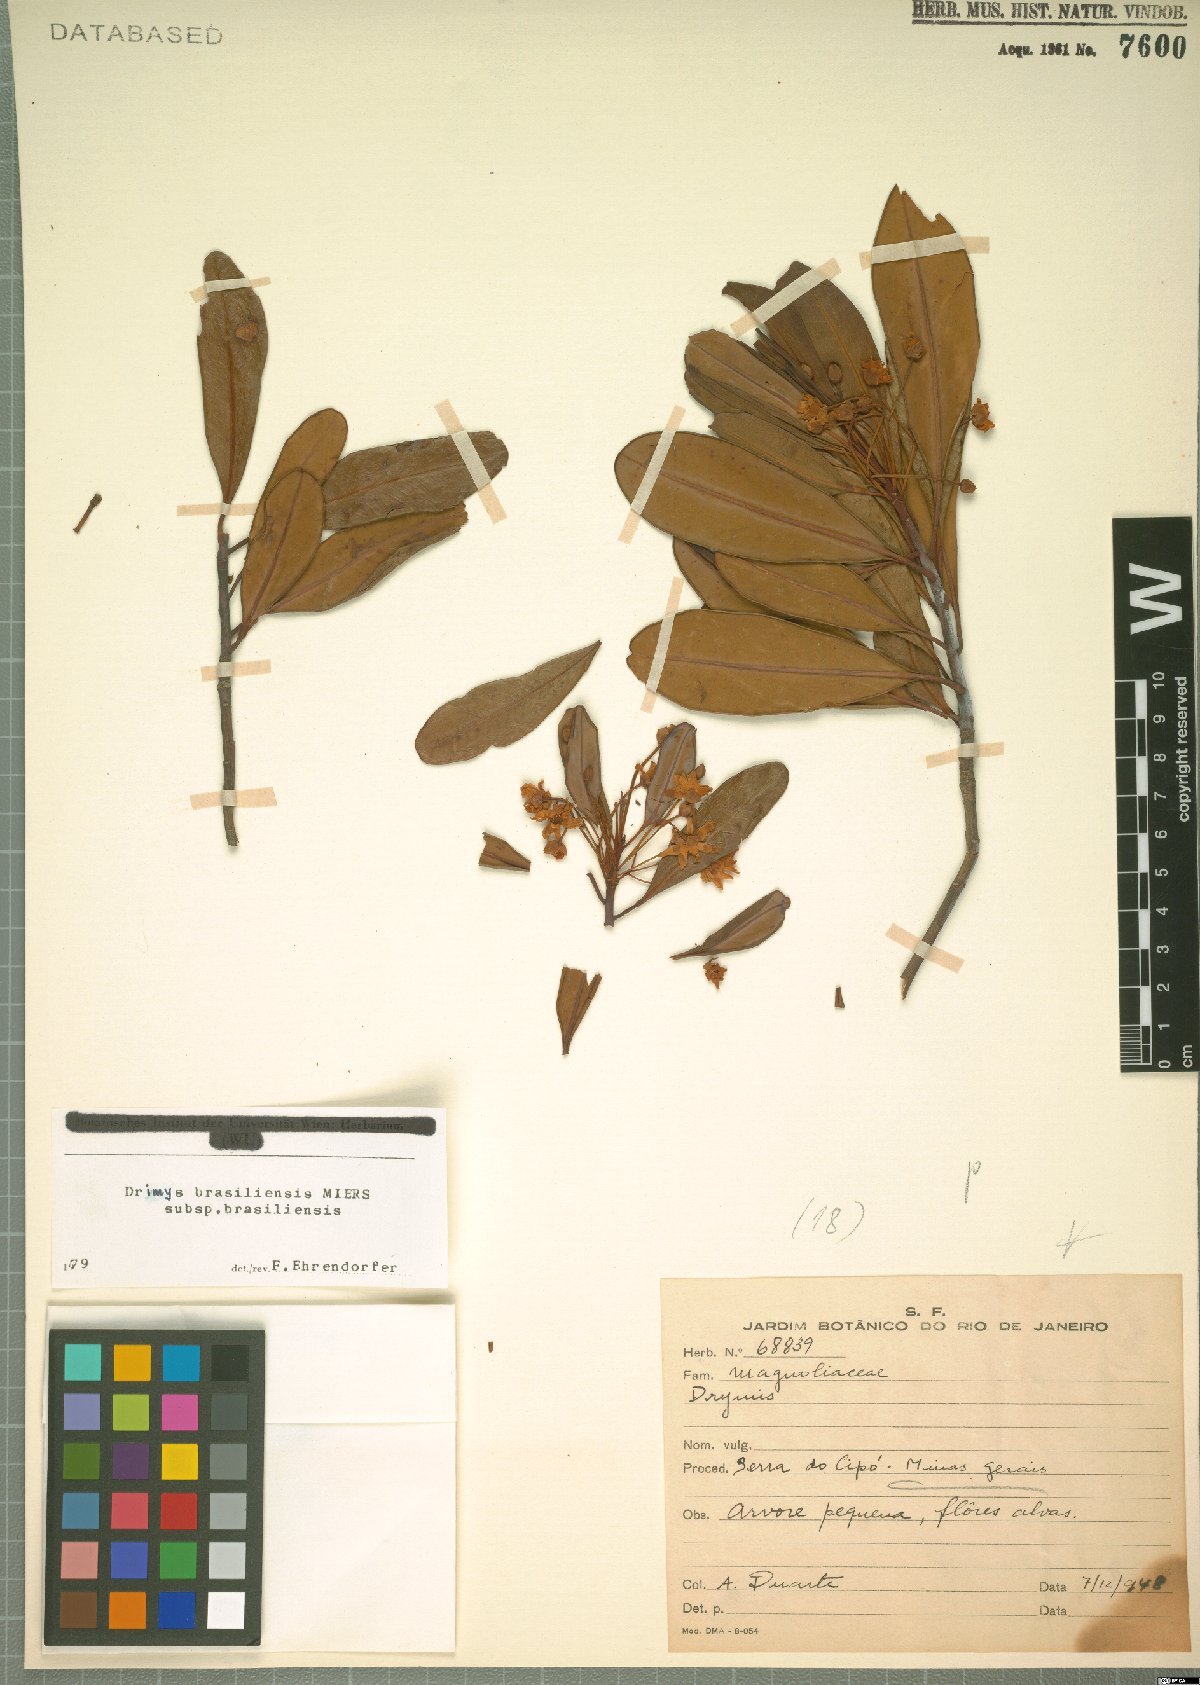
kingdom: Plantae
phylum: Tracheophyta
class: Magnoliopsida
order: Canellales
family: Winteraceae
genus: Drimys
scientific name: Drimys brasiliensis
